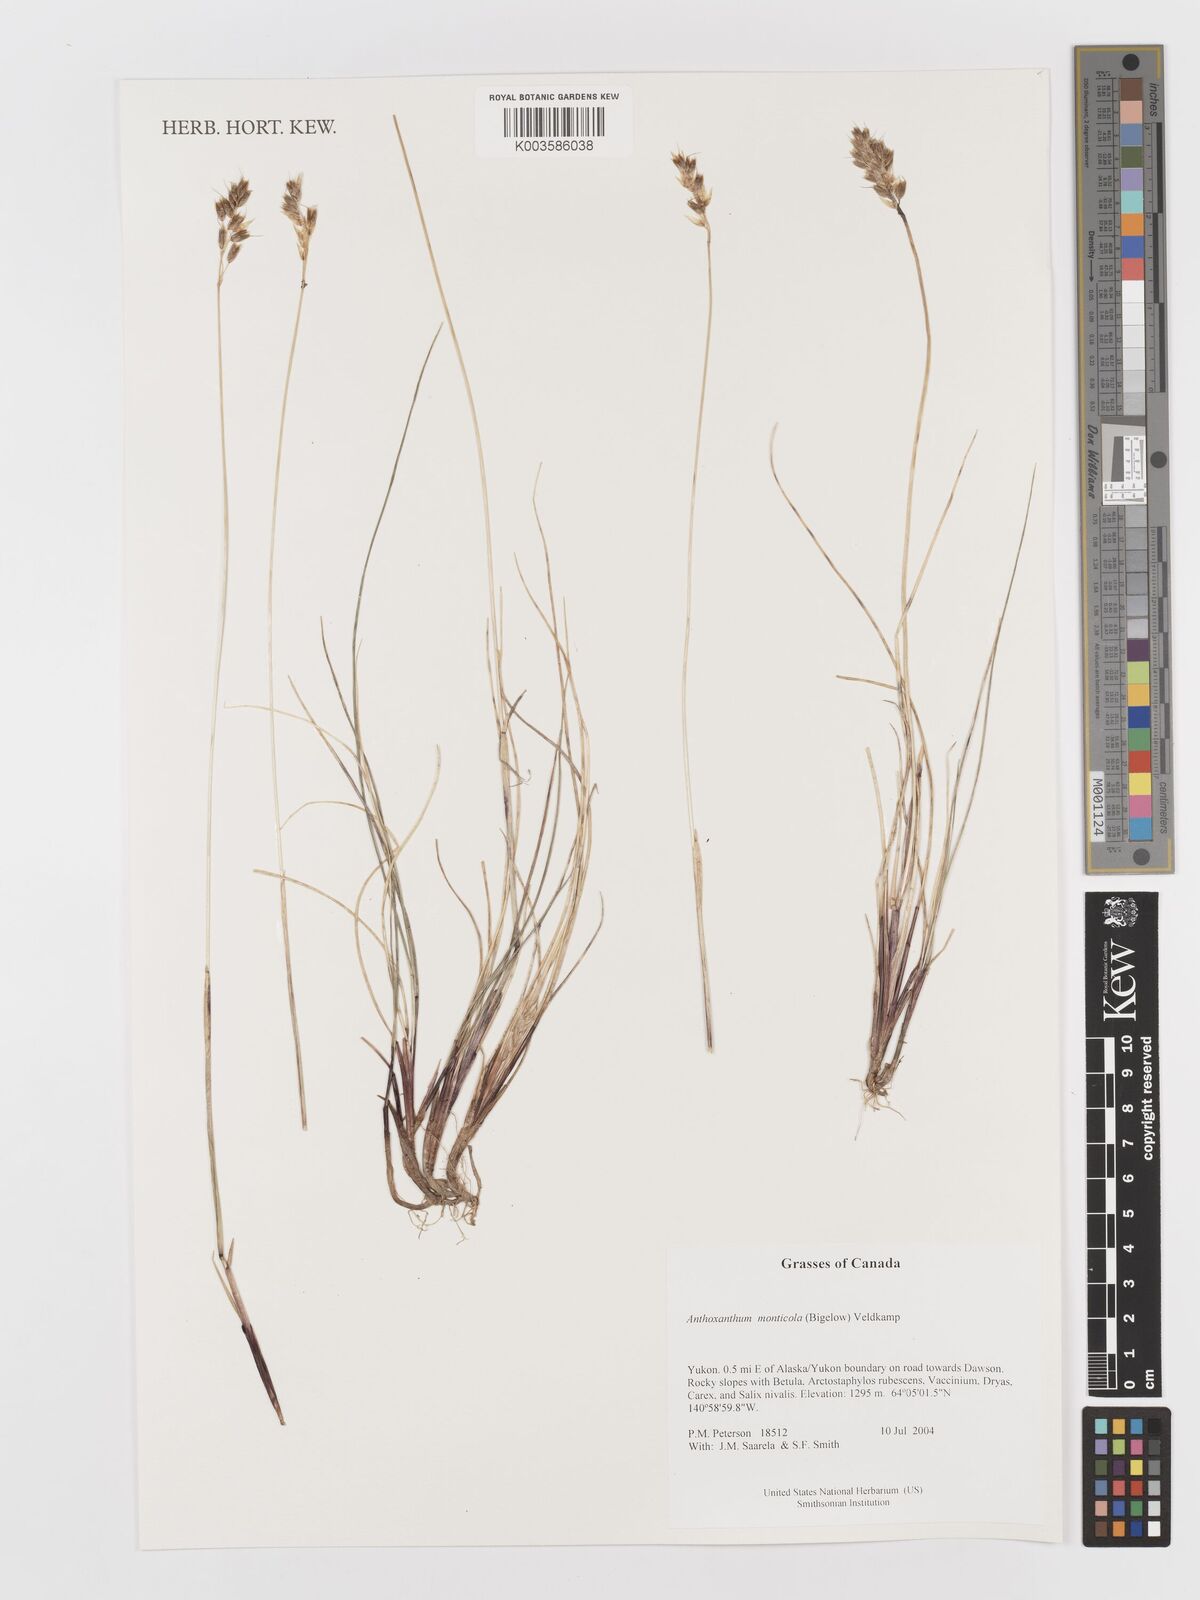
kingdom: Plantae
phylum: Tracheophyta
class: Liliopsida
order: Poales
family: Poaceae
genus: Anthoxanthum
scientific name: Anthoxanthum monticola
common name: Alpine sweetgrass
